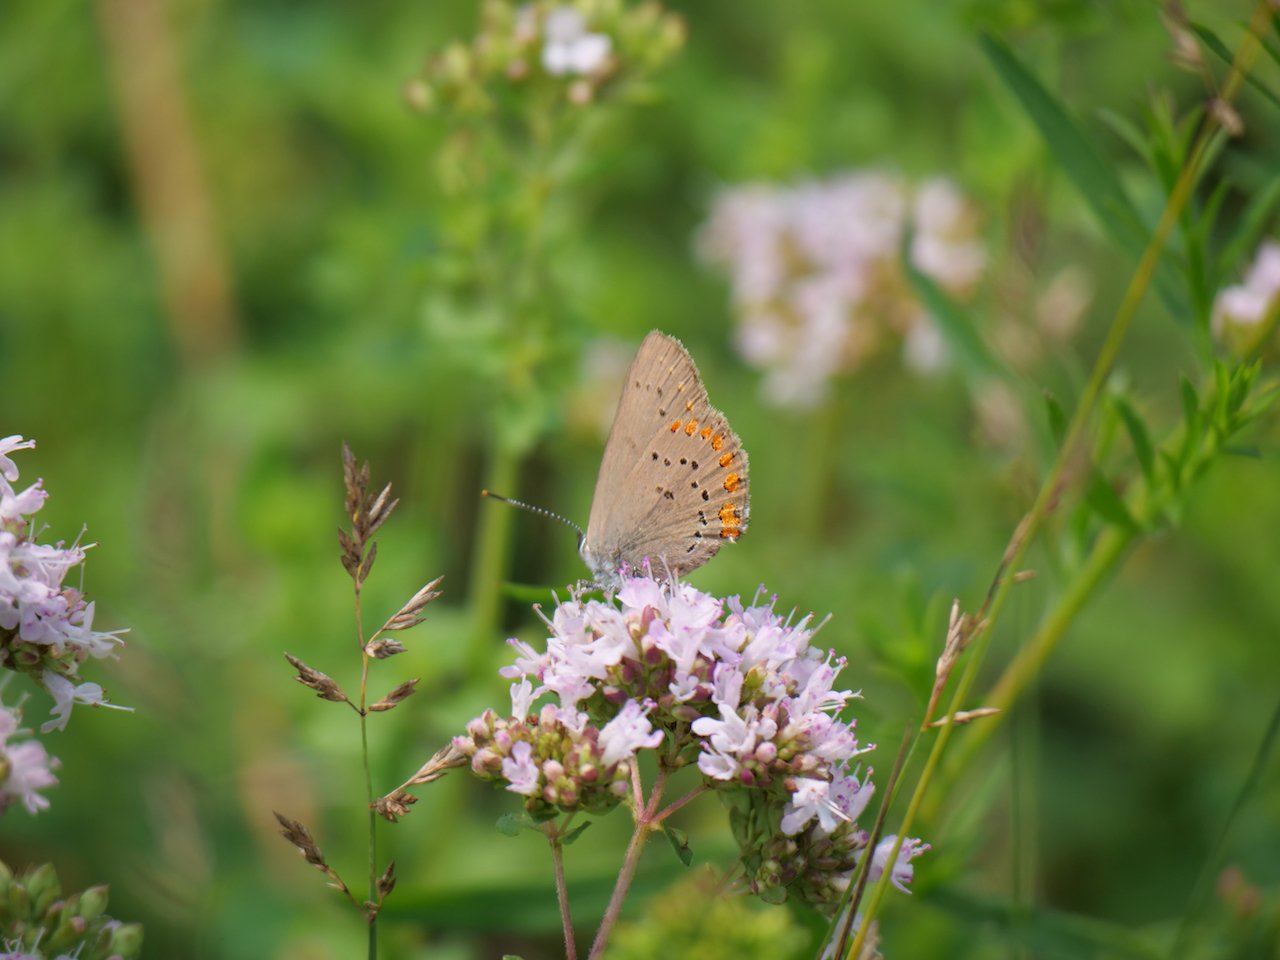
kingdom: Animalia
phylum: Arthropoda
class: Insecta
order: Lepidoptera
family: Lycaenidae
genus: Harkenclenus
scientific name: Harkenclenus titus
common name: Coral Hairstreak
